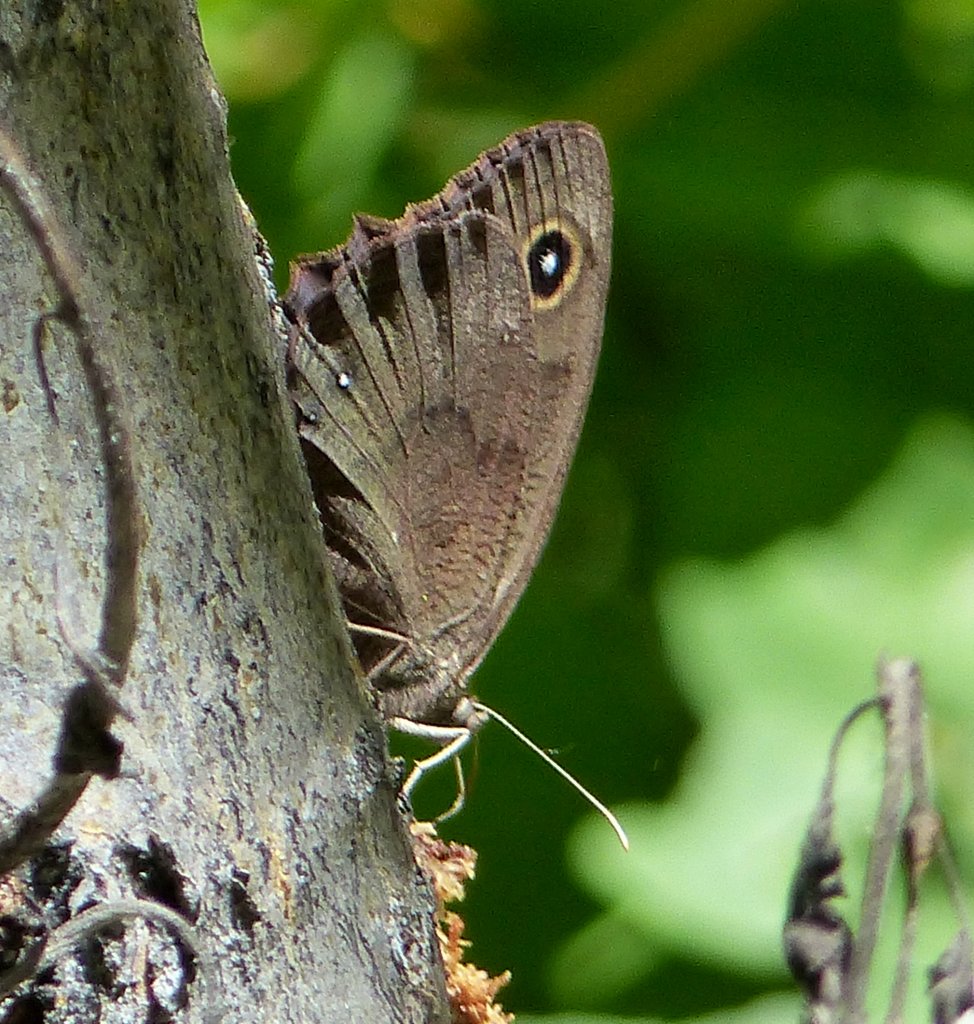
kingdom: Animalia
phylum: Arthropoda
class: Insecta
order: Lepidoptera
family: Nymphalidae
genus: Cercyonis
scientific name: Cercyonis pegala
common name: Common Wood-Nymph
